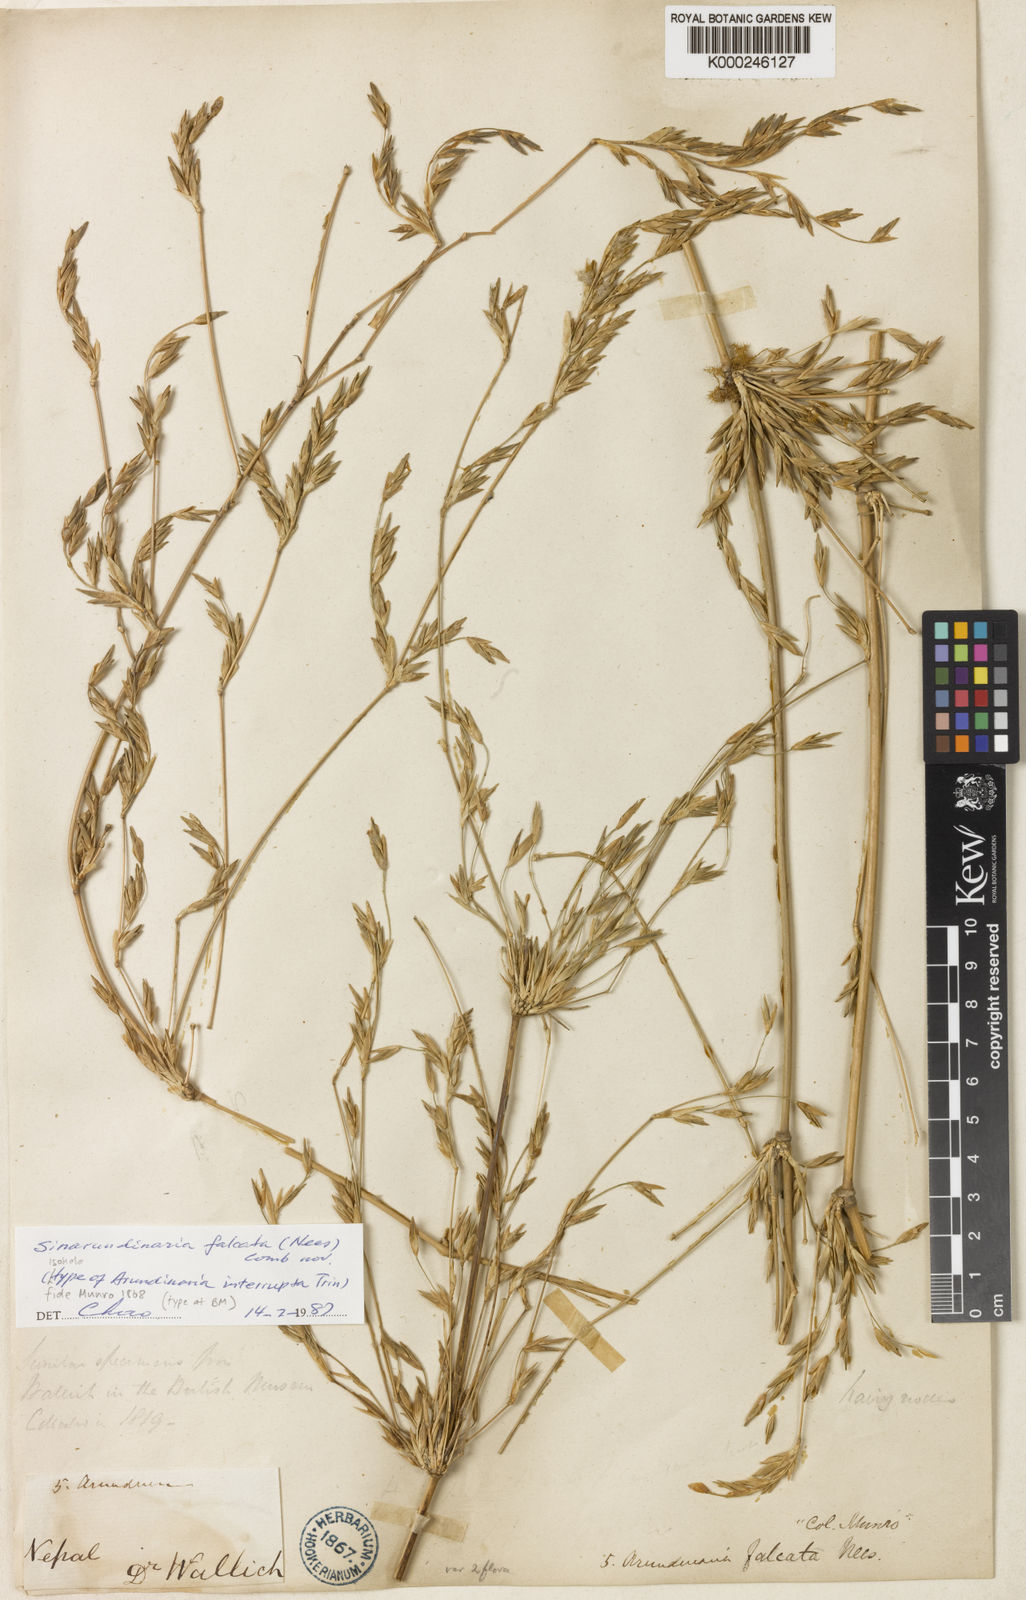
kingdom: Plantae
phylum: Tracheophyta
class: Liliopsida
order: Poales
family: Poaceae
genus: Drepanostachyum
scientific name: Drepanostachyum falcatum
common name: Himalayan bamboo
